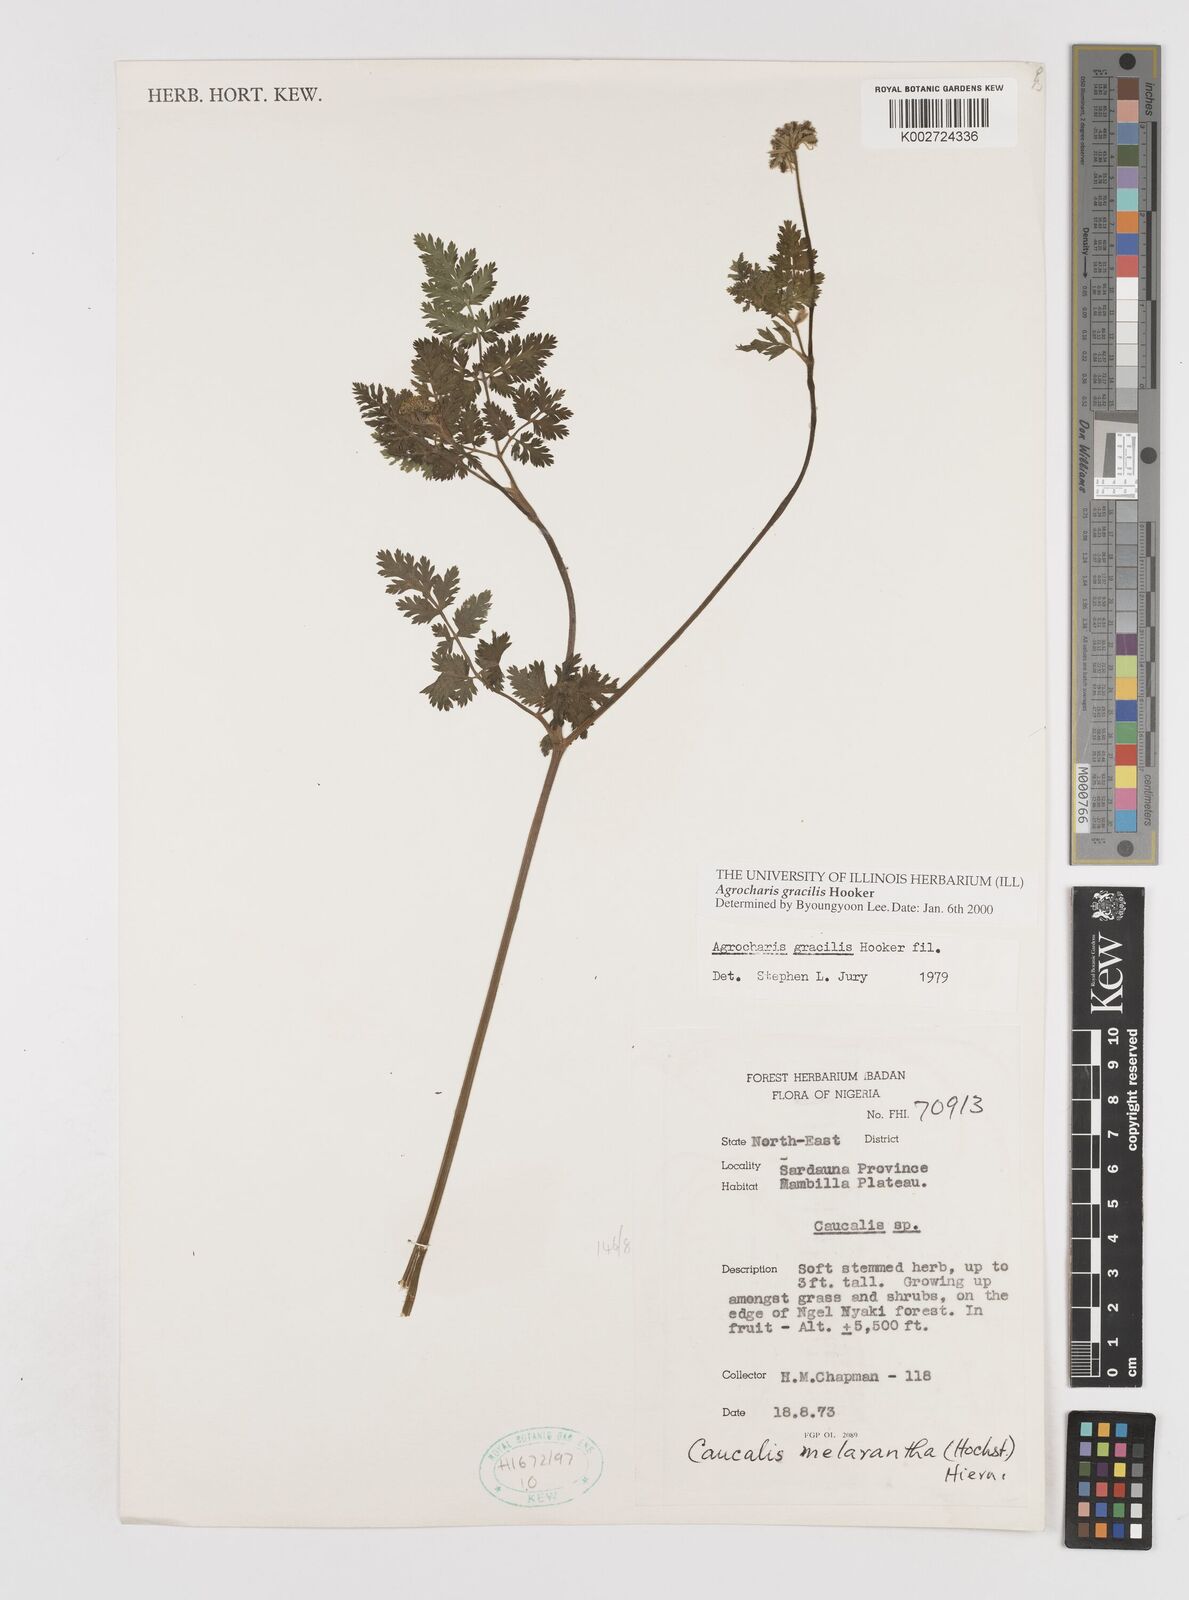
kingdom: Plantae
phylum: Tracheophyta
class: Magnoliopsida
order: Apiales
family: Apiaceae
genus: Daucus
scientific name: Daucus
